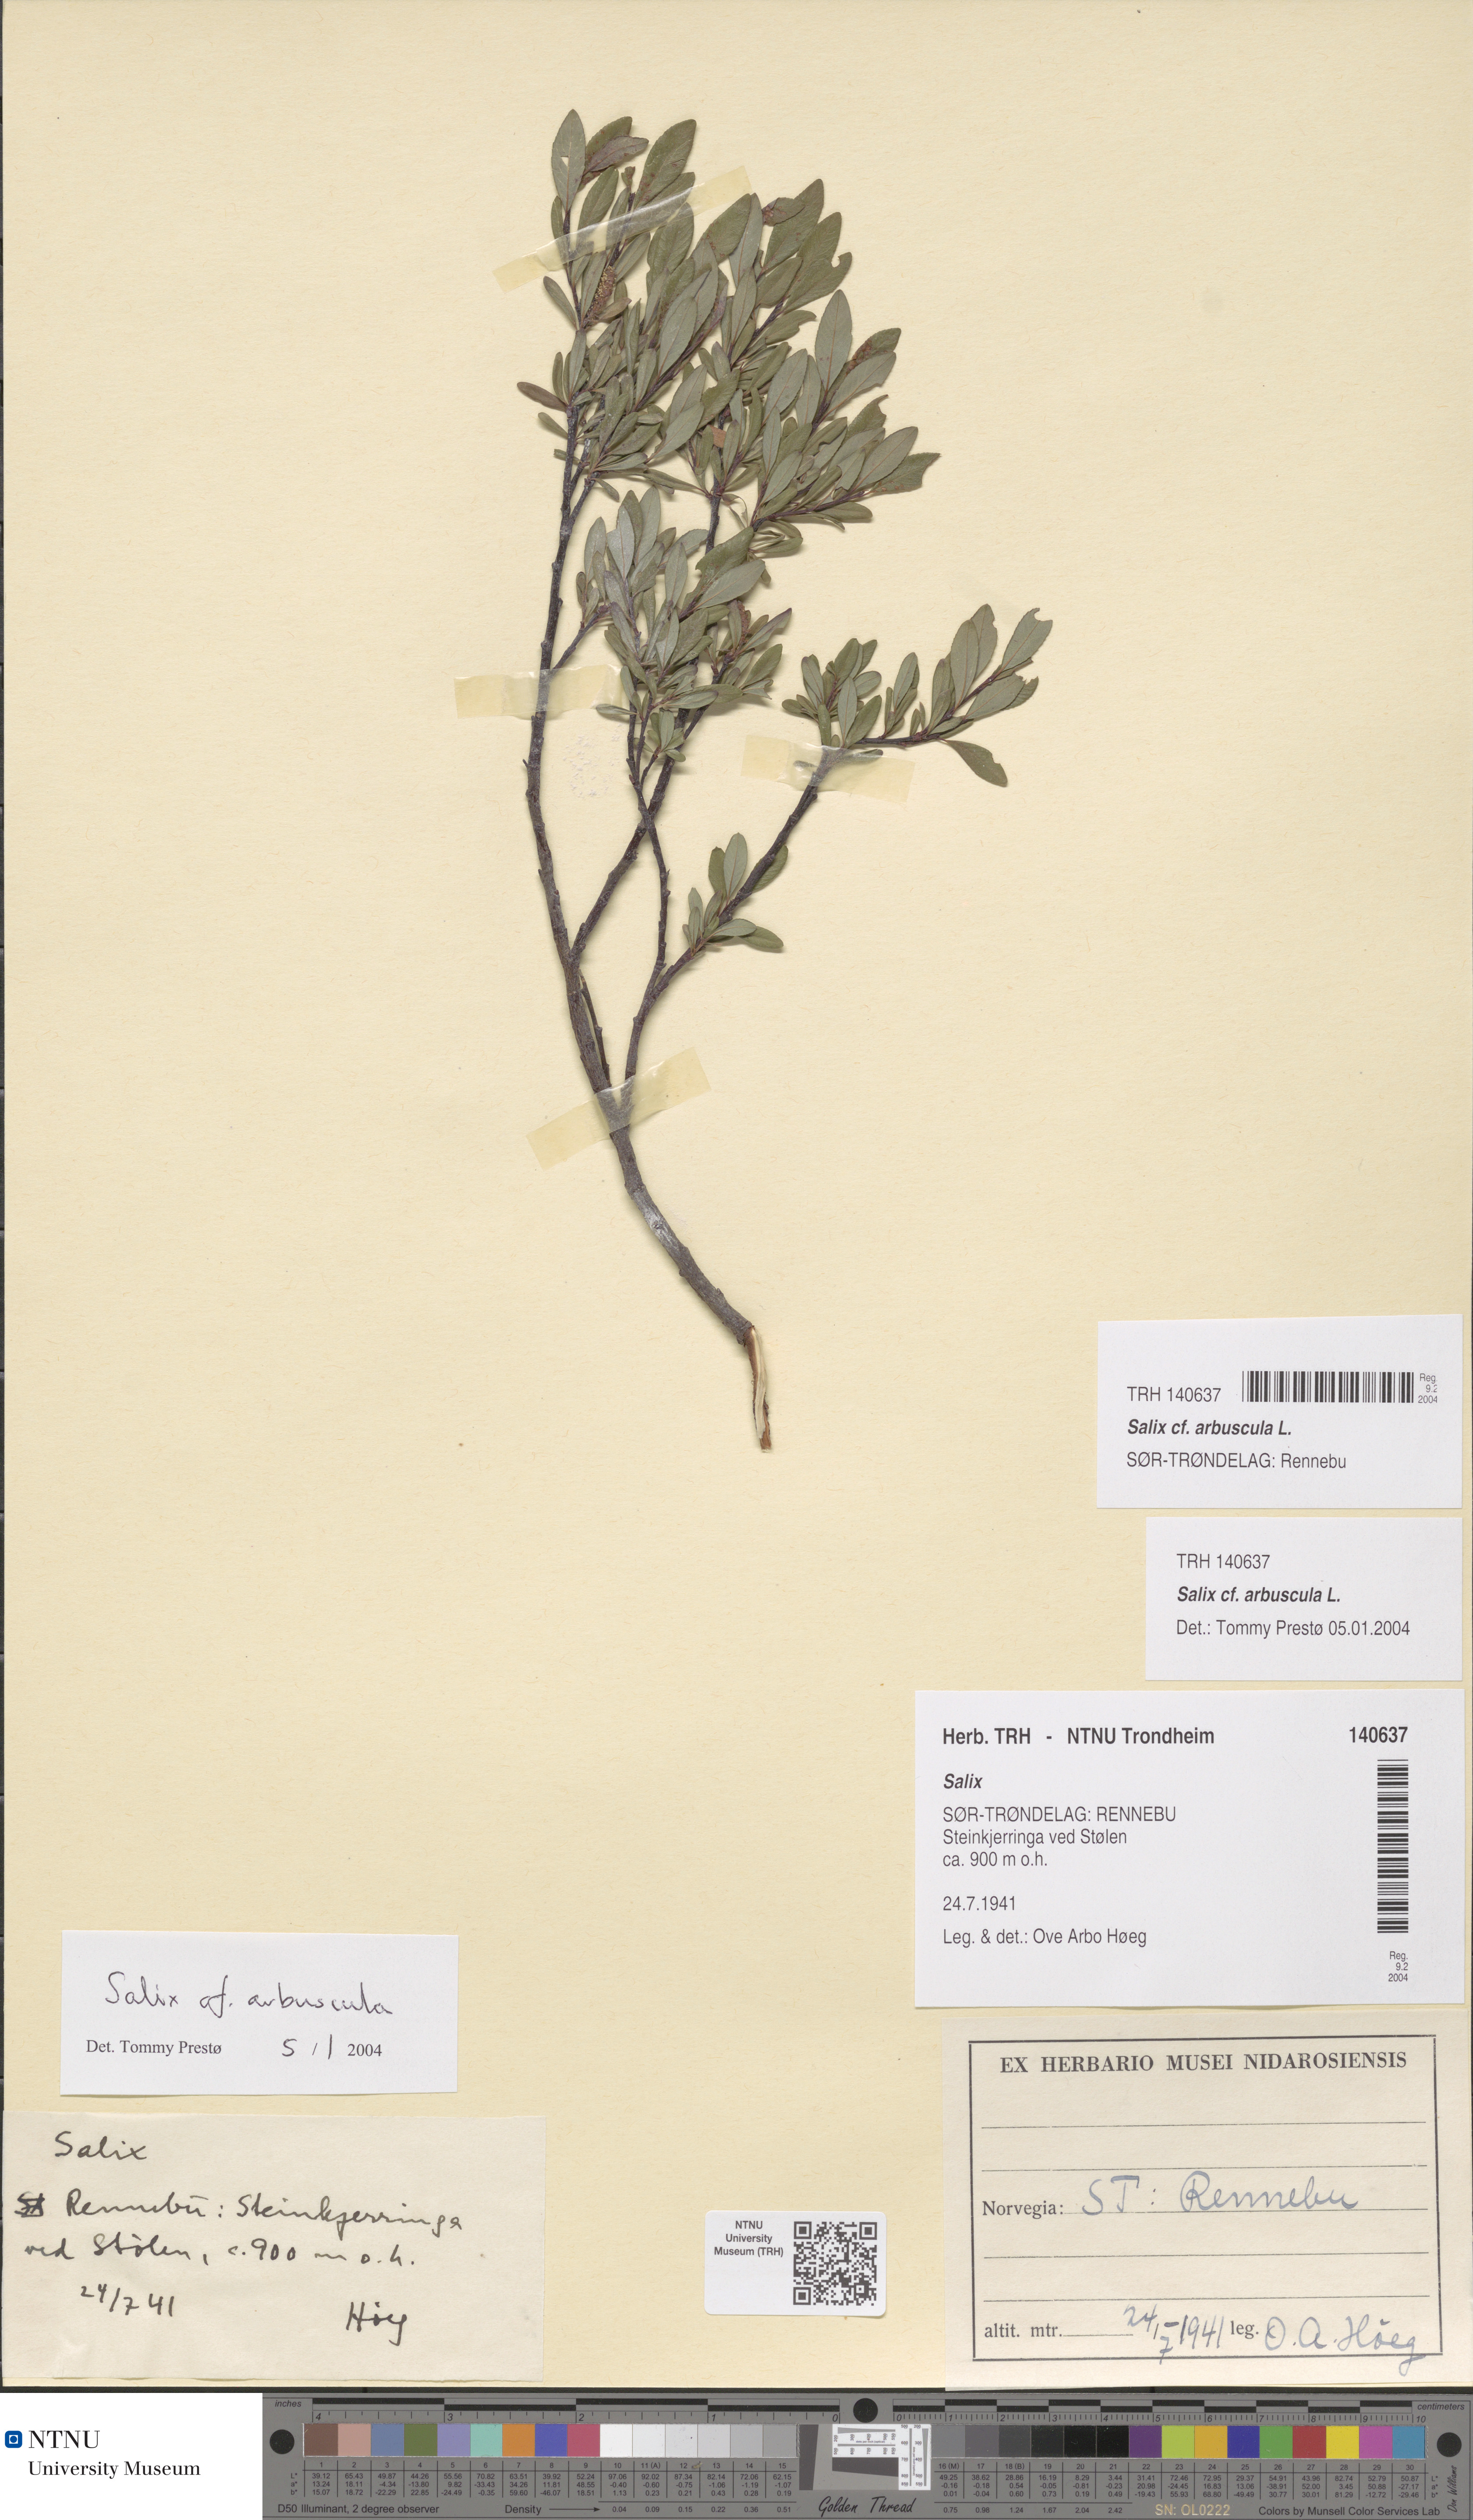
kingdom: Plantae
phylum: Tracheophyta
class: Magnoliopsida
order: Malpighiales
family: Salicaceae
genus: Salix
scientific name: Salix arbuscula
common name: Mountain willow
